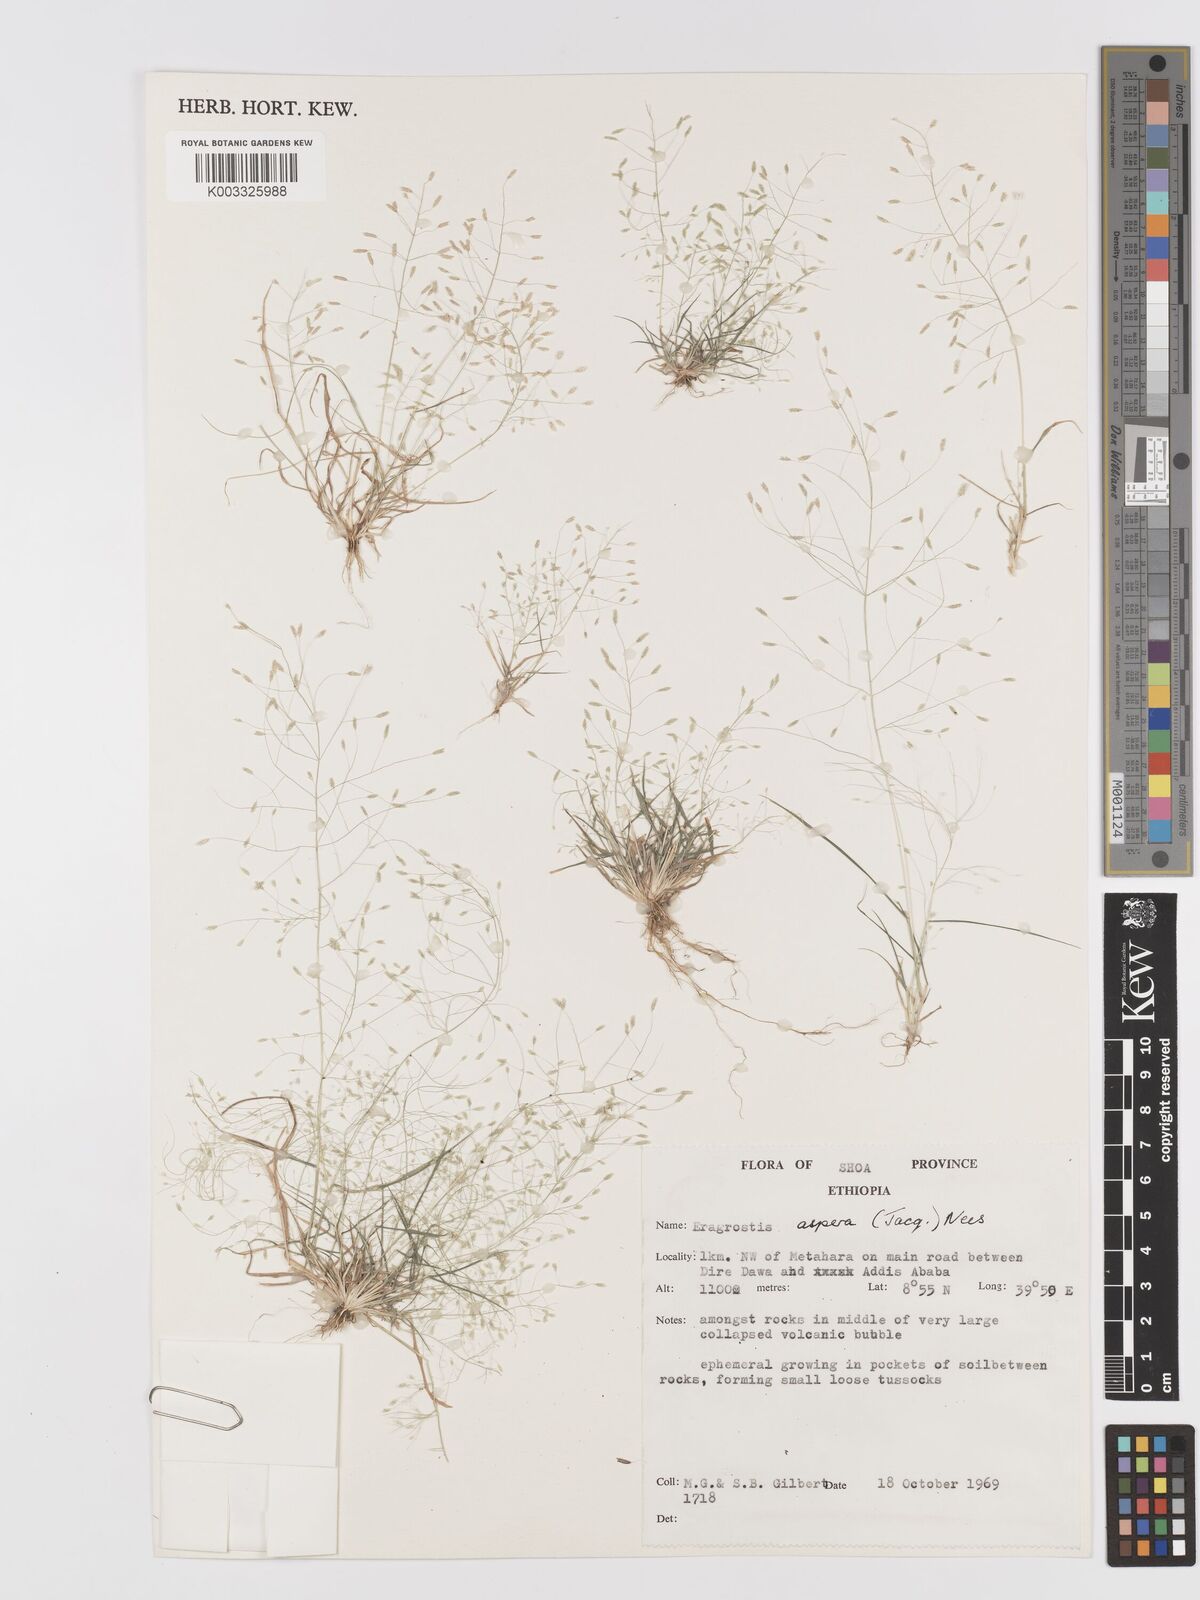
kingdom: Plantae
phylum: Tracheophyta
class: Liliopsida
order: Poales
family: Poaceae
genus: Eragrostis
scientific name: Eragrostis aspera
